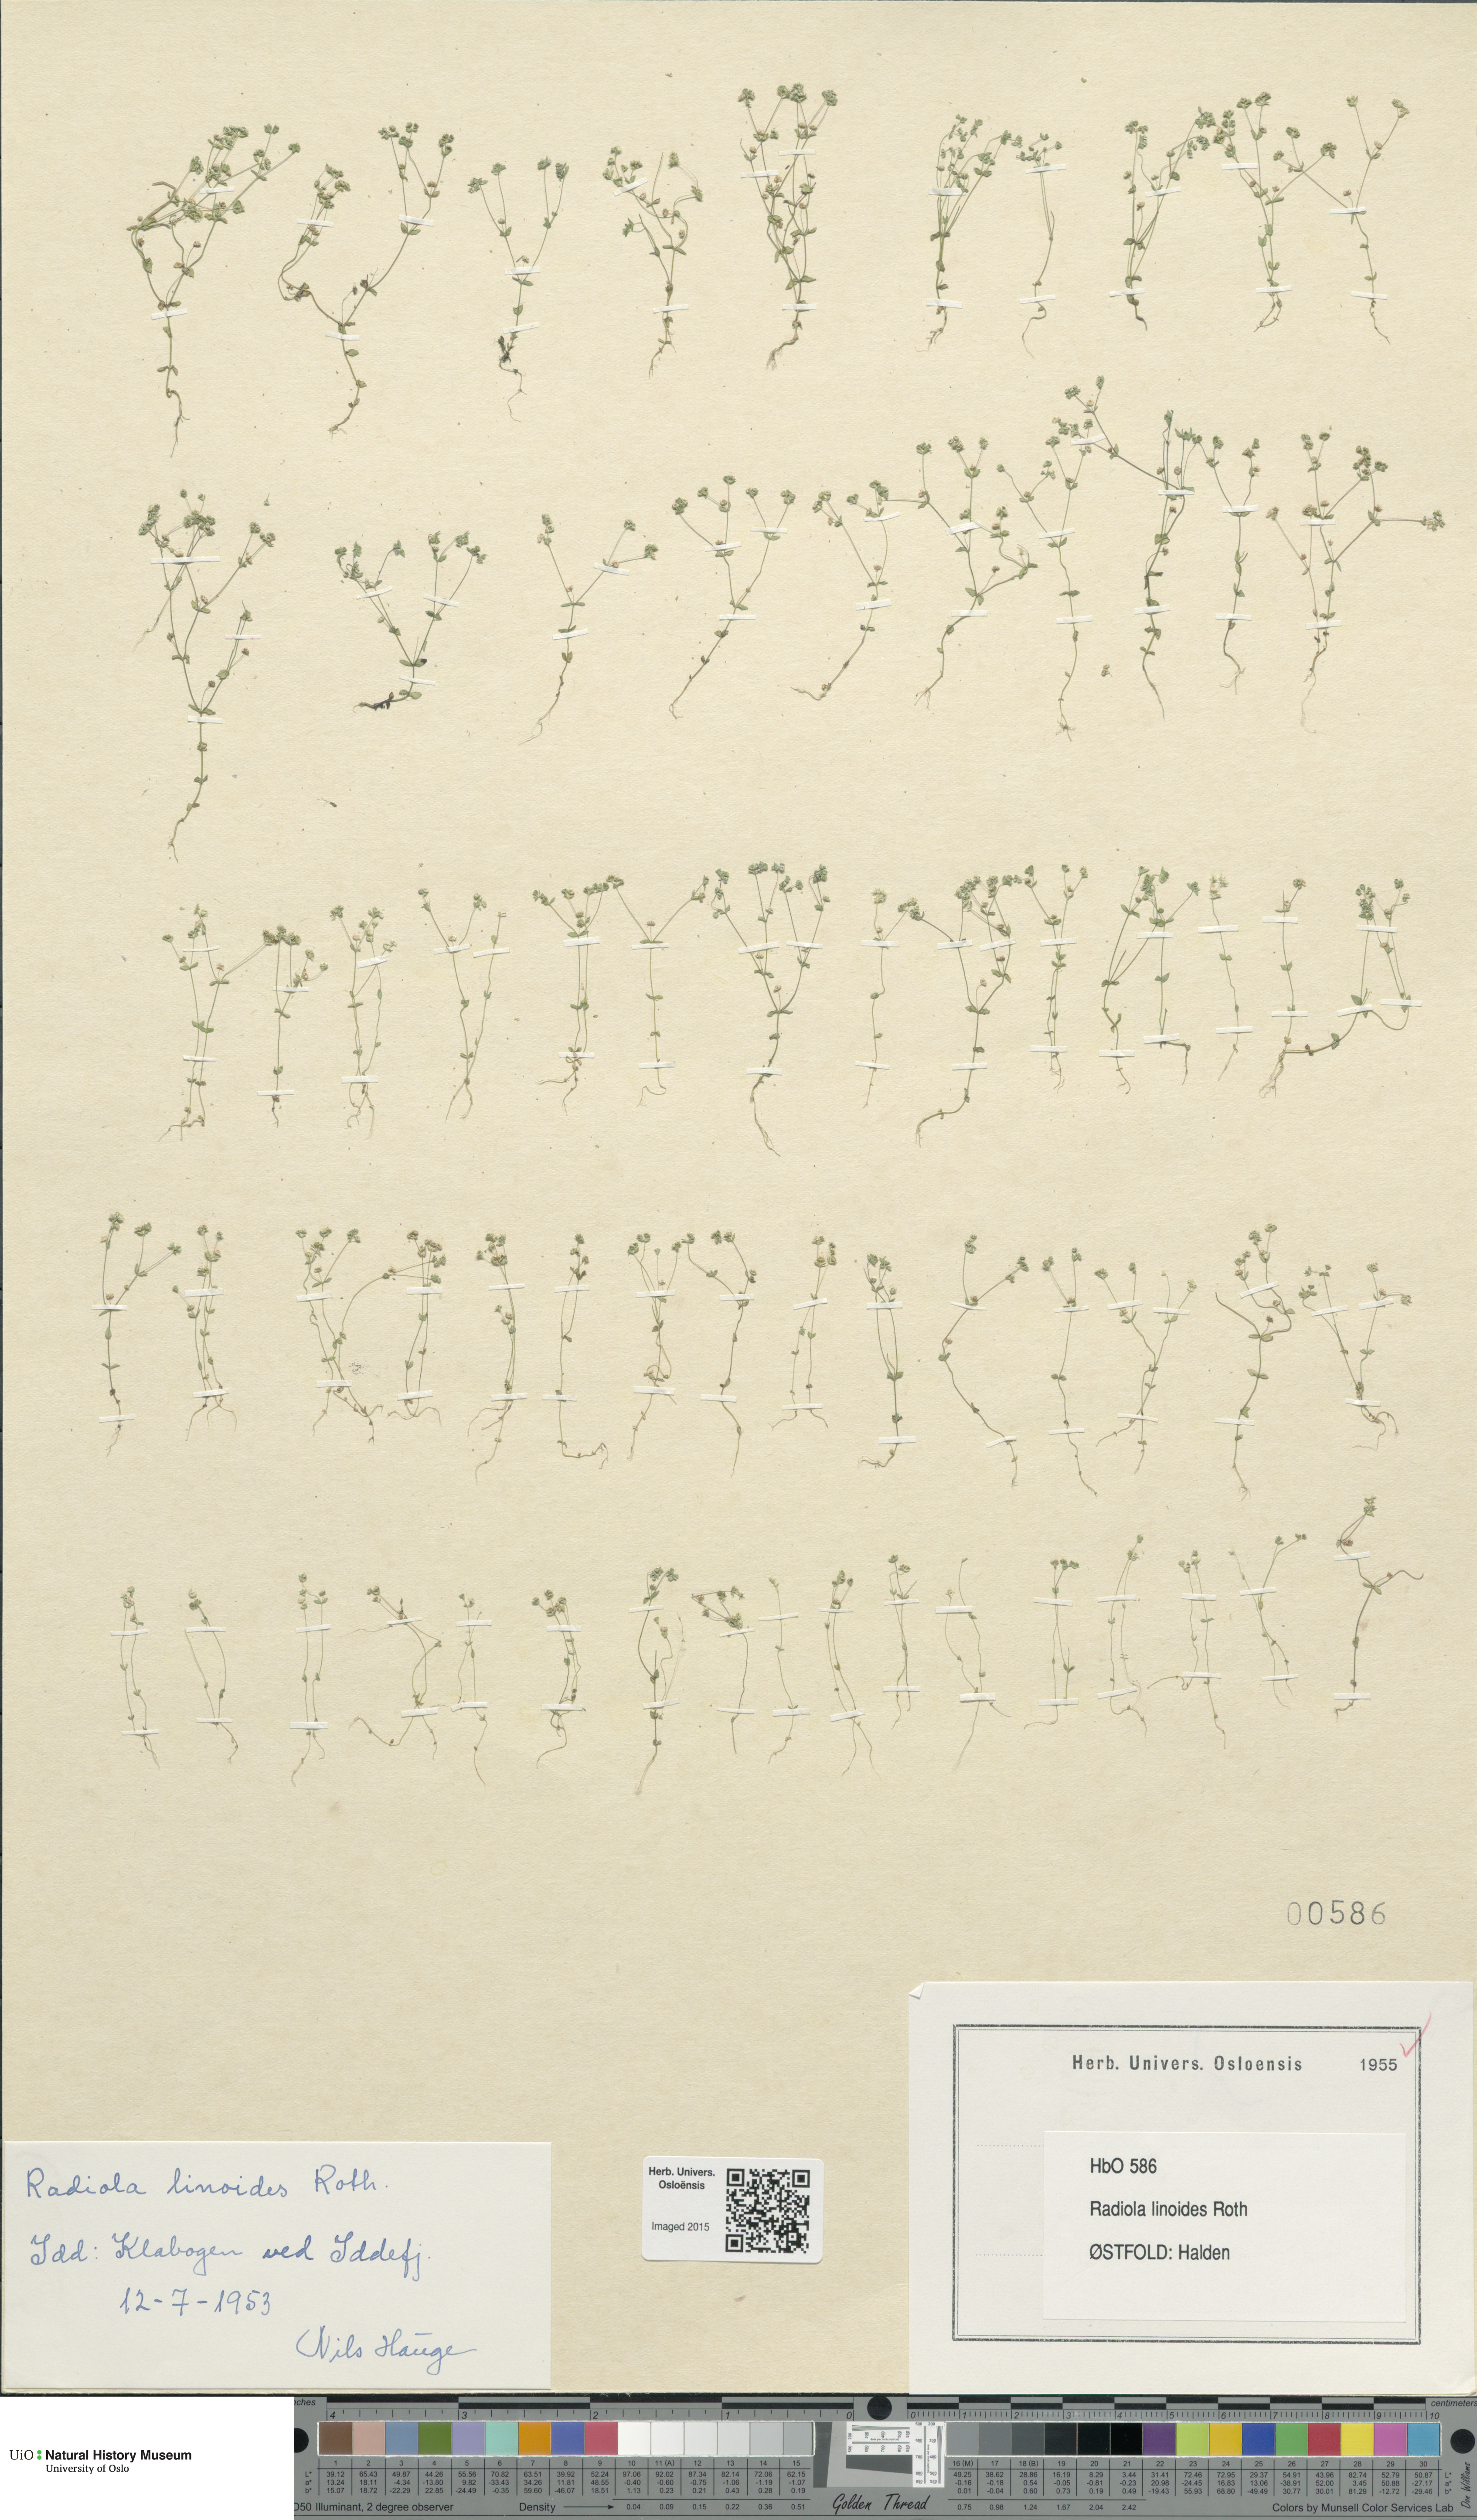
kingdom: Plantae
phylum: Tracheophyta
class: Magnoliopsida
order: Malpighiales
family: Linaceae
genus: Radiola
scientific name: Radiola linoides
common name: Allseed
